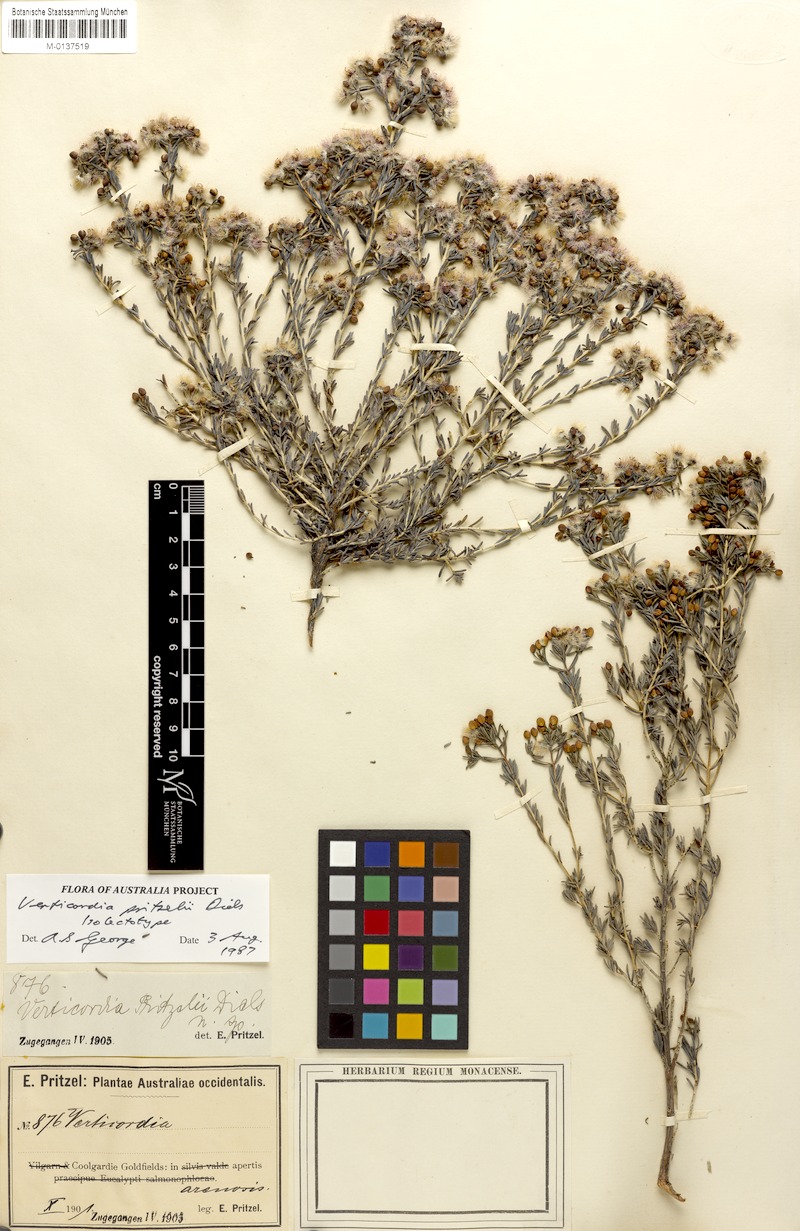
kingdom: Plantae
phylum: Tracheophyta
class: Magnoliopsida
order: Myrtales
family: Myrtaceae
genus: Verticordia
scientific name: Verticordia pritzelii
